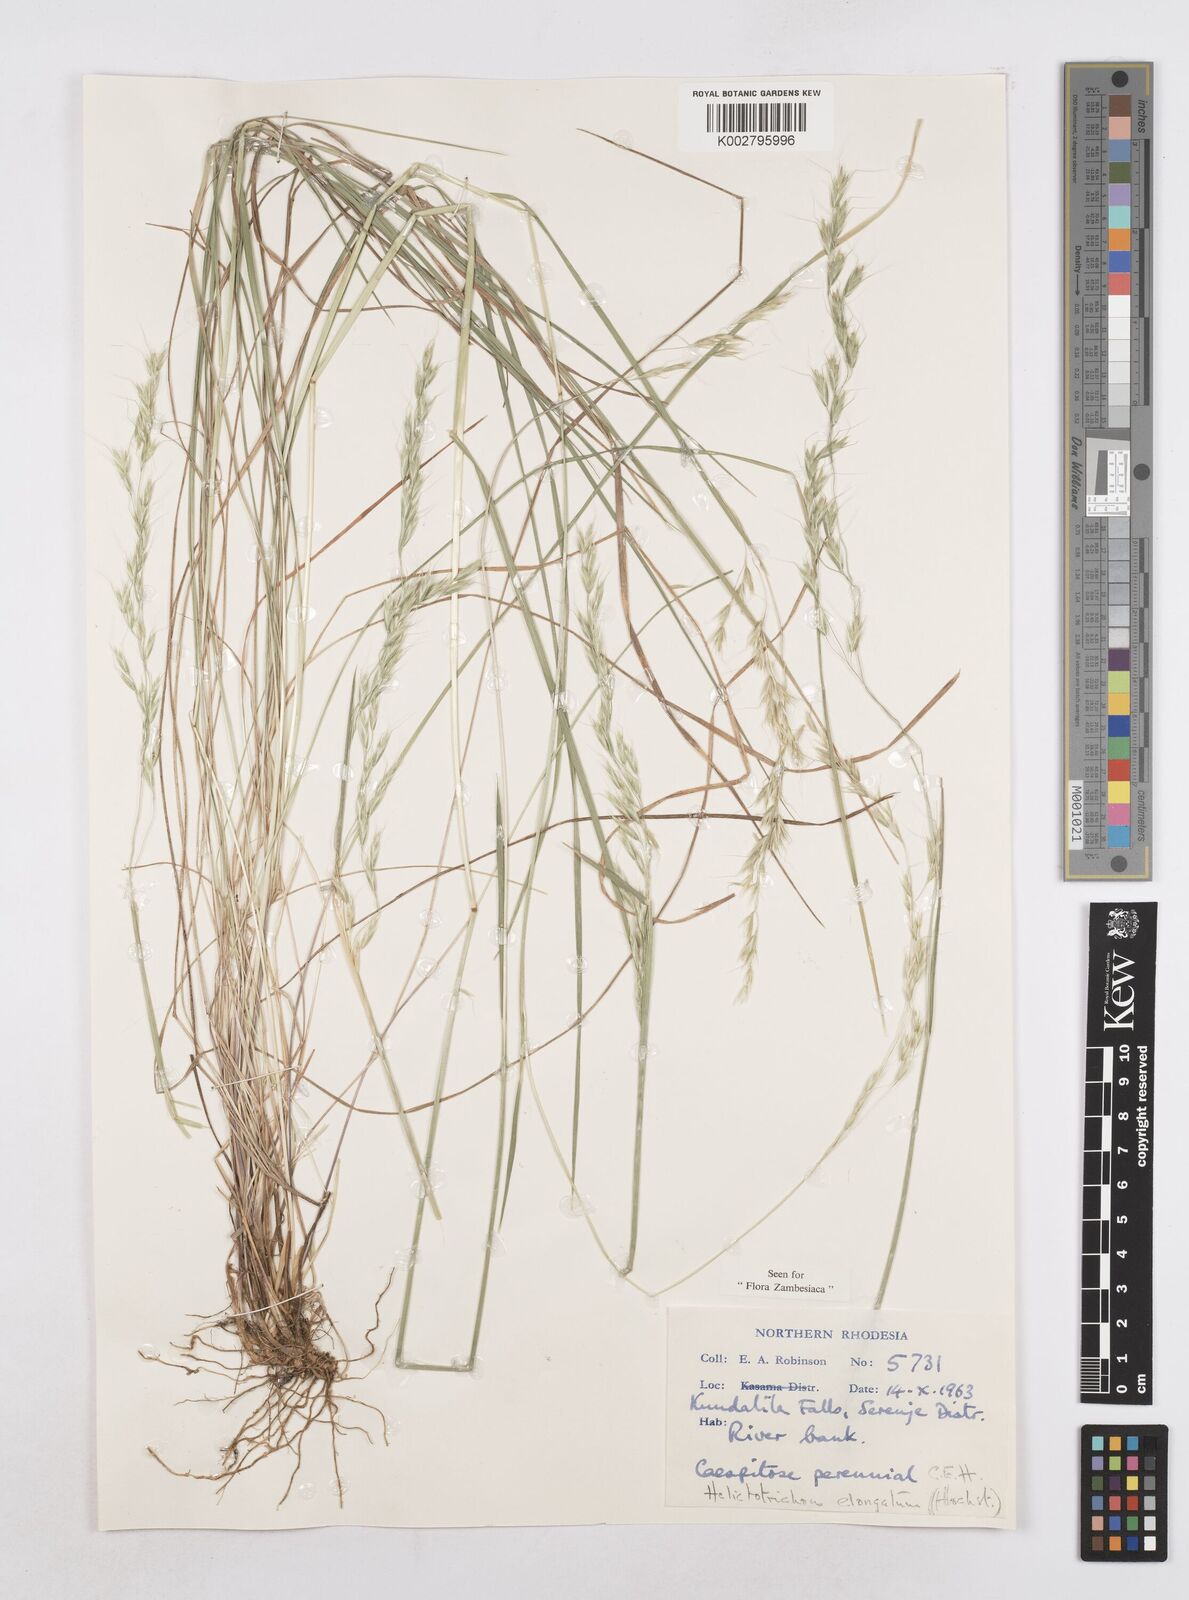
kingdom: Plantae
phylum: Tracheophyta
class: Liliopsida
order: Poales
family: Poaceae
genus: Trisetopsis
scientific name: Trisetopsis elongata
